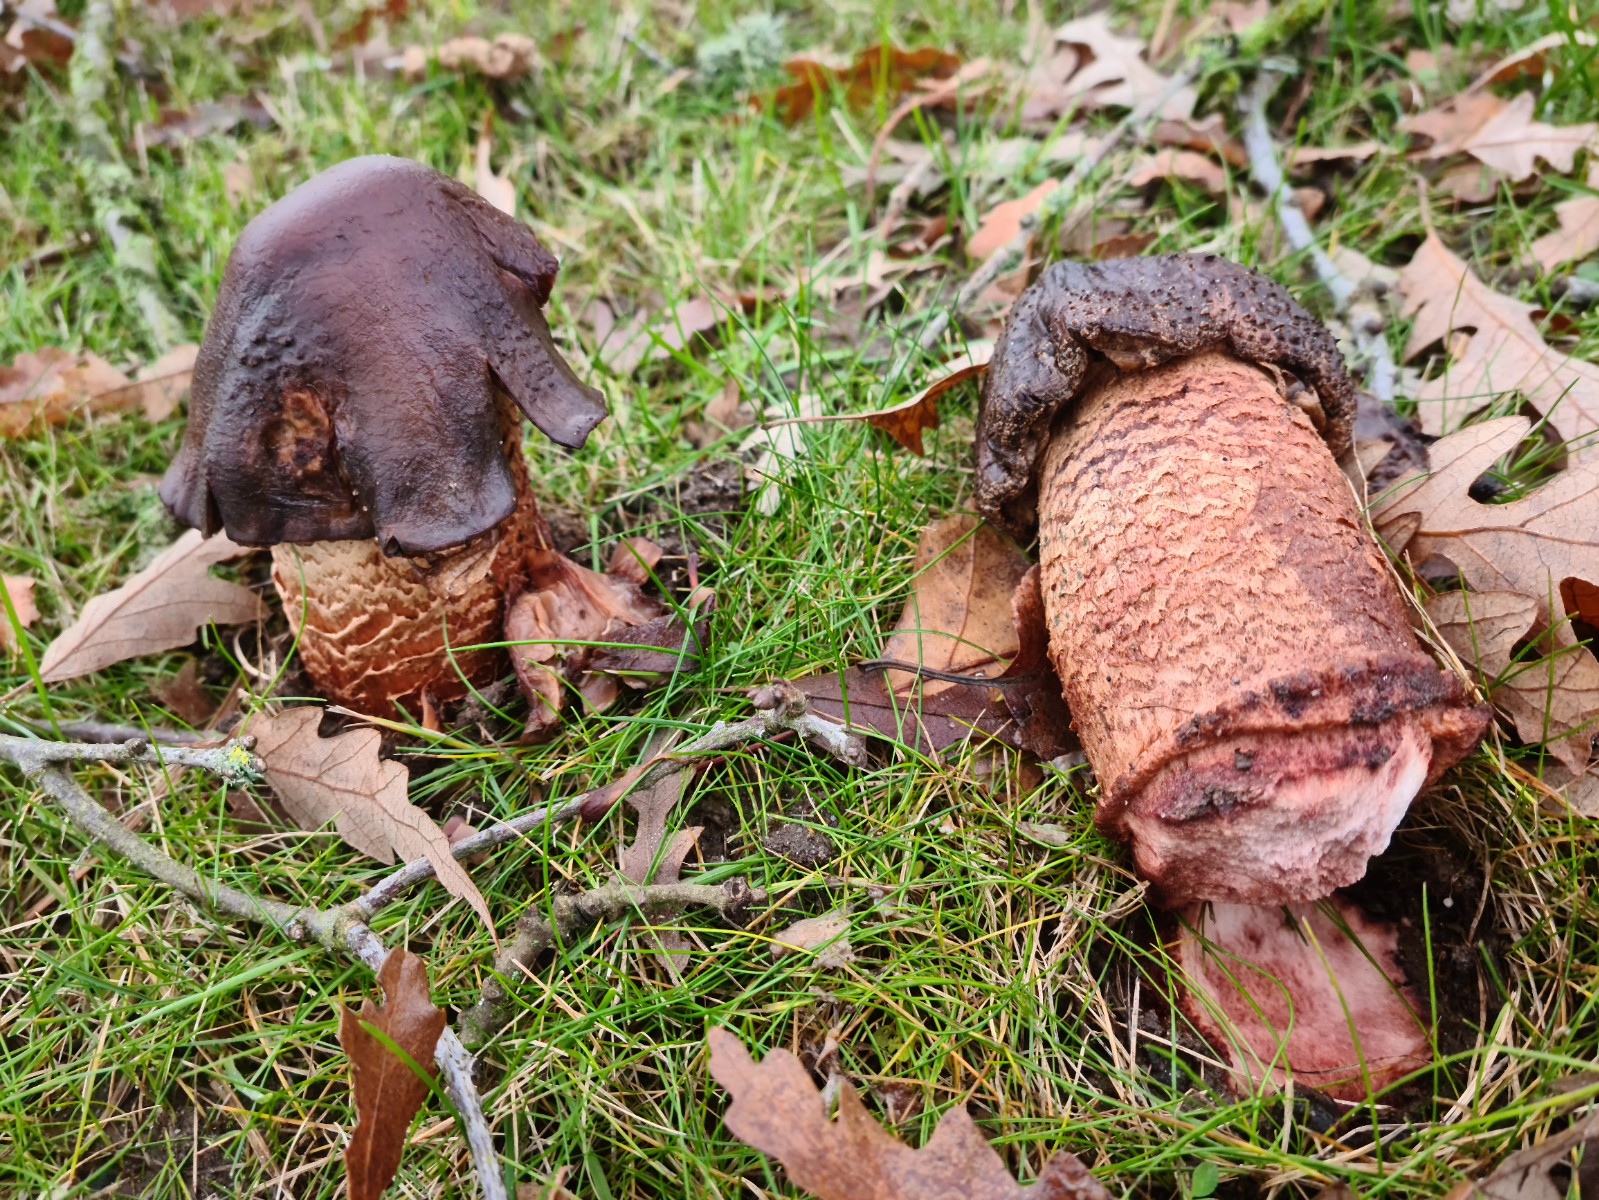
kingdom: Fungi
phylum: Basidiomycota
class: Agaricomycetes
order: Agaricales
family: Amanitaceae
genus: Amanita
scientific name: Amanita rubescens
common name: rødmende fluesvamp
